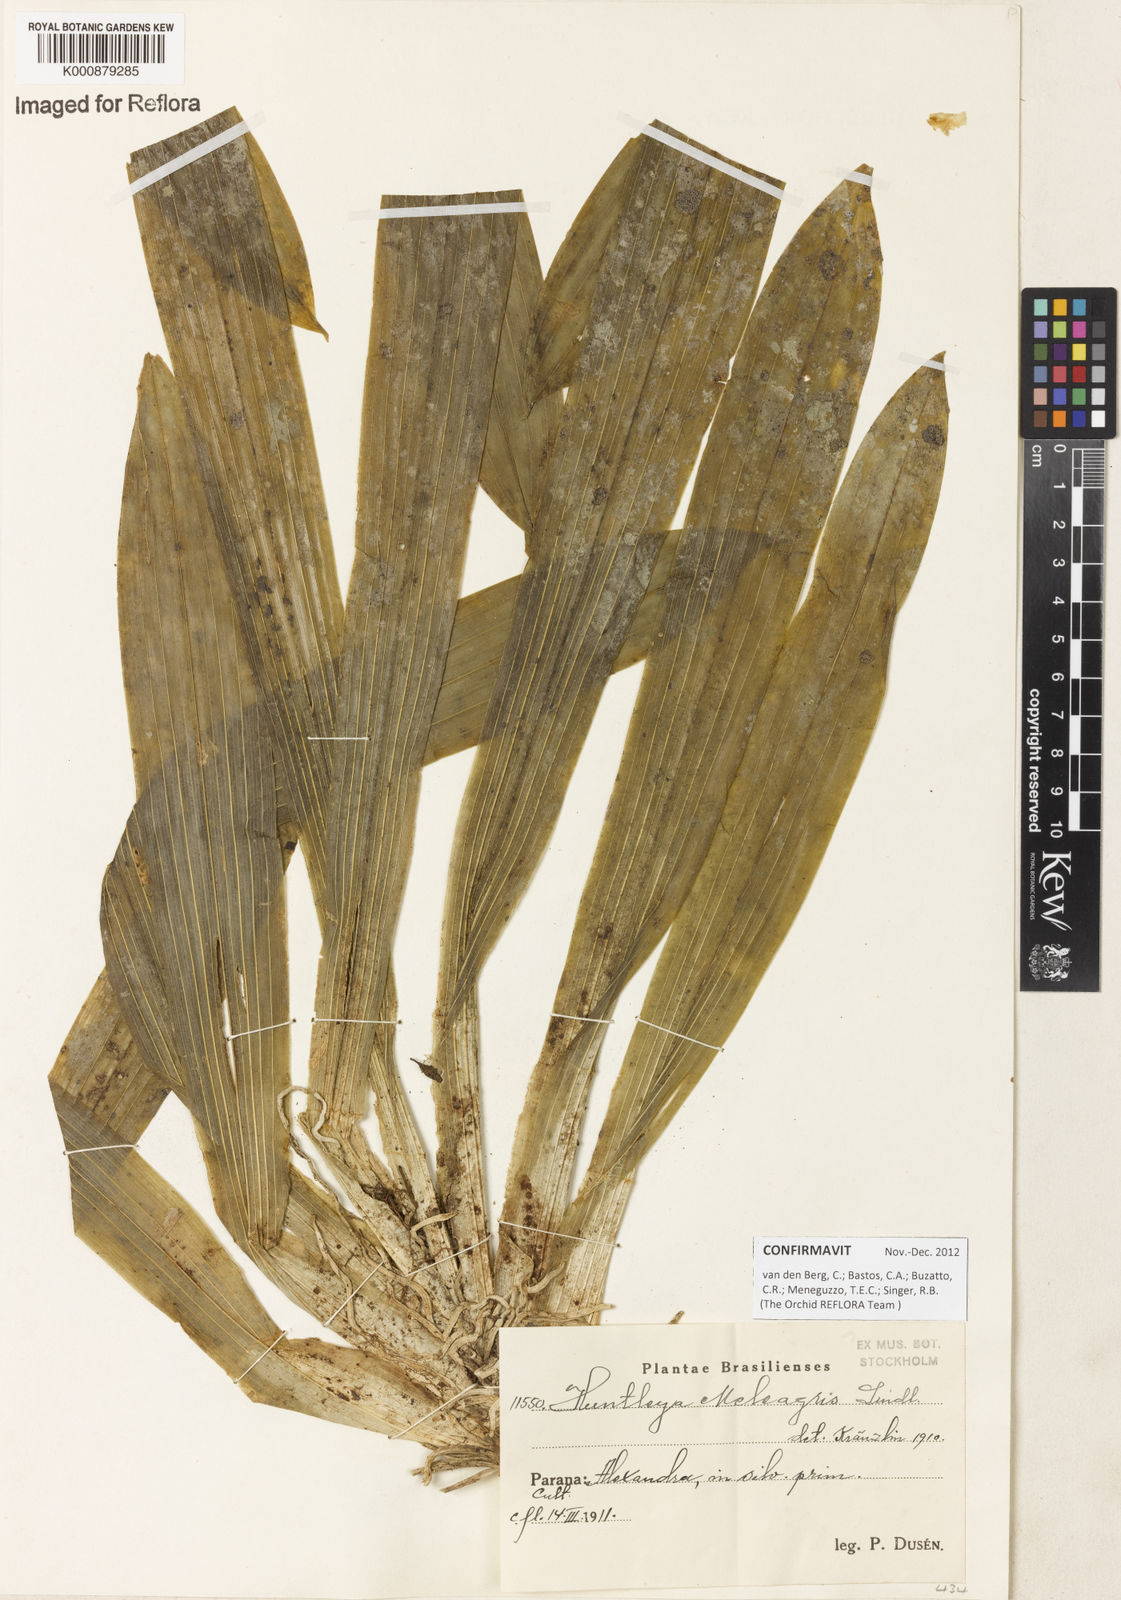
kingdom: Plantae
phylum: Tracheophyta
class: Liliopsida
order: Asparagales
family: Orchidaceae
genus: Huntleya
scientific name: Huntleya meleagris
